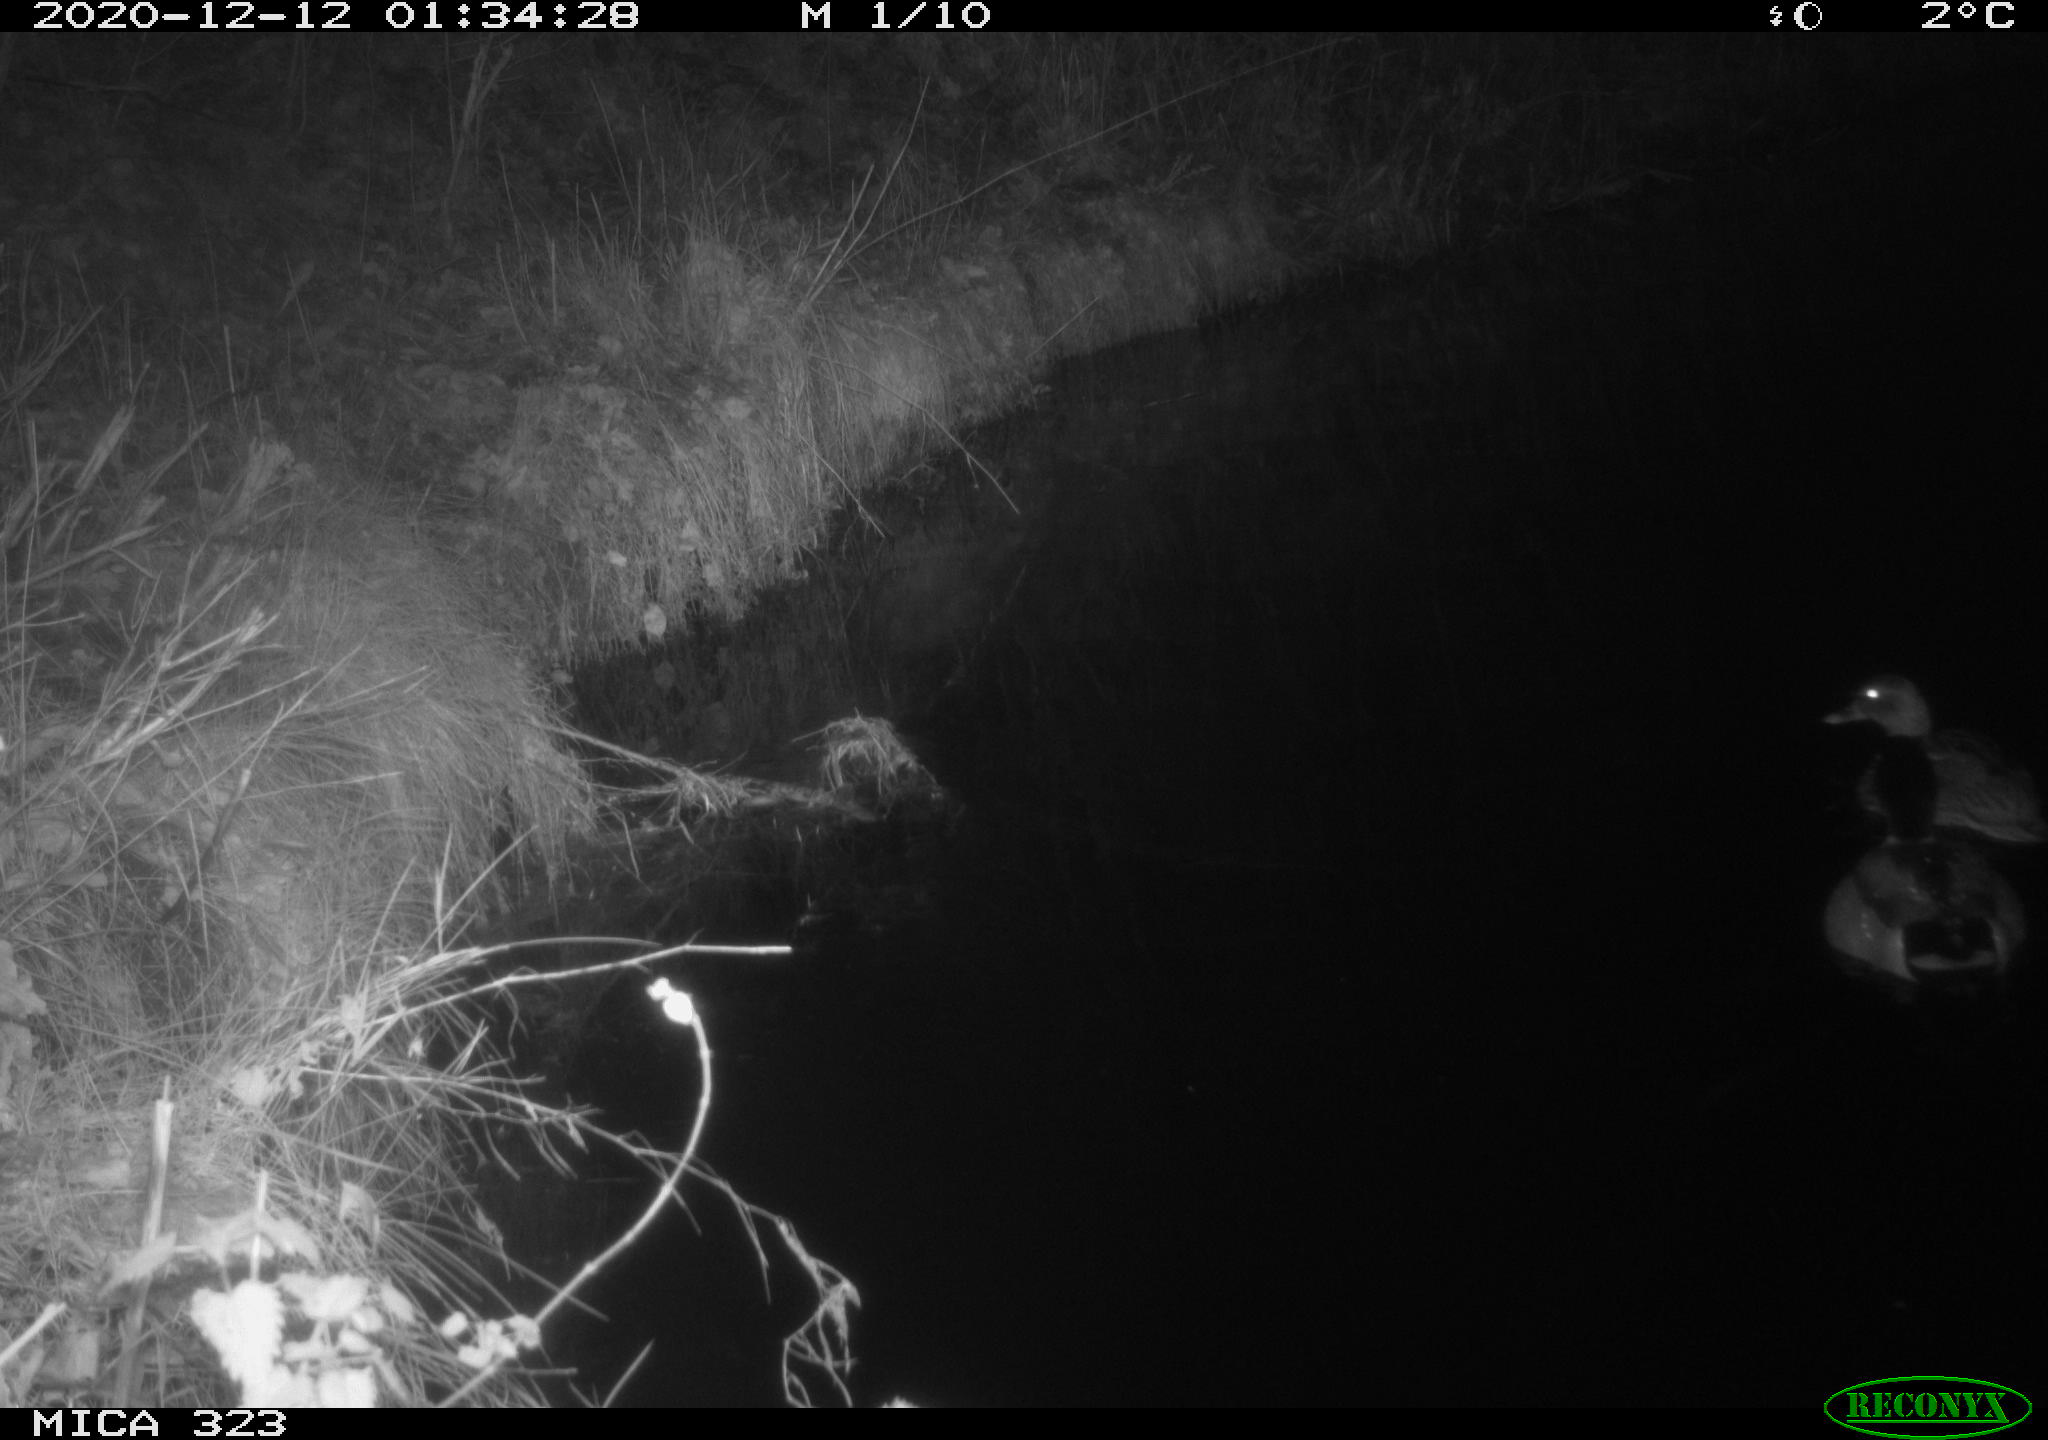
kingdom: Animalia
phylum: Chordata
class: Aves
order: Anseriformes
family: Anatidae
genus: Anas
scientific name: Anas platyrhynchos
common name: Mallard
